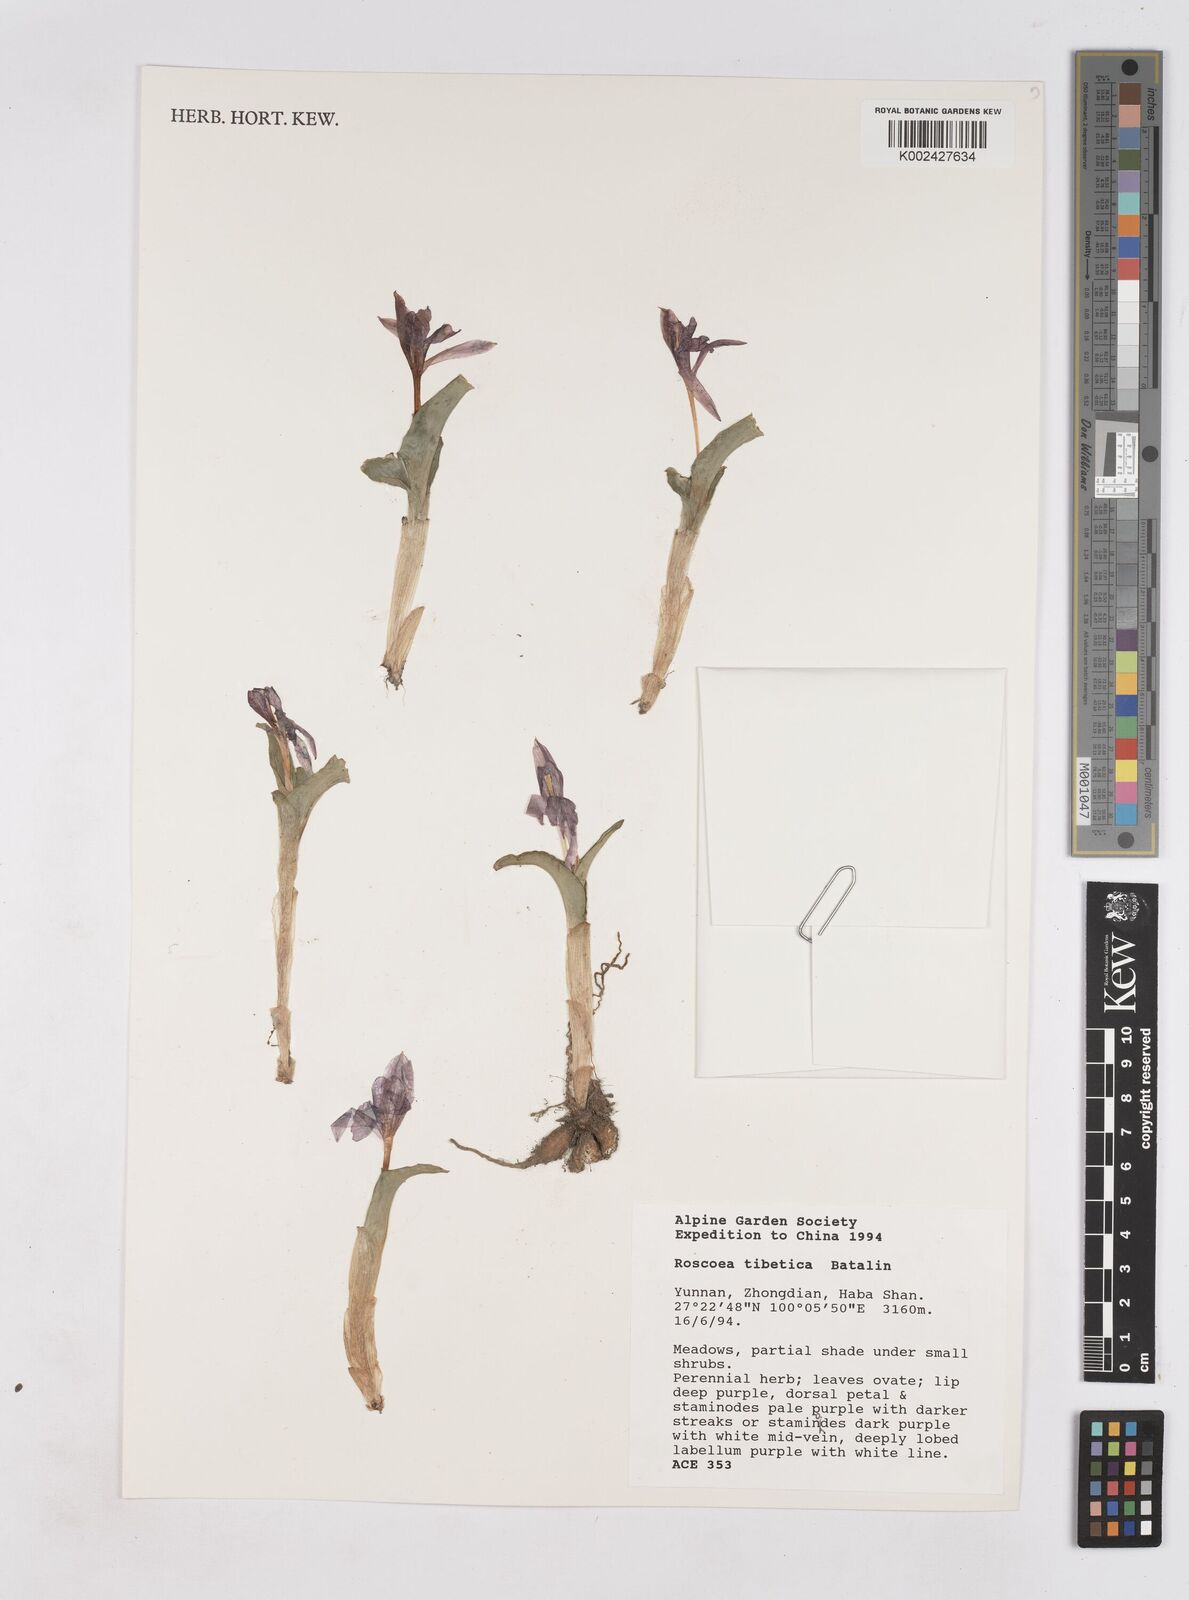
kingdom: Plantae
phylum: Tracheophyta
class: Liliopsida
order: Zingiberales
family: Zingiberaceae
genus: Roscoea
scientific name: Roscoea tibetica
